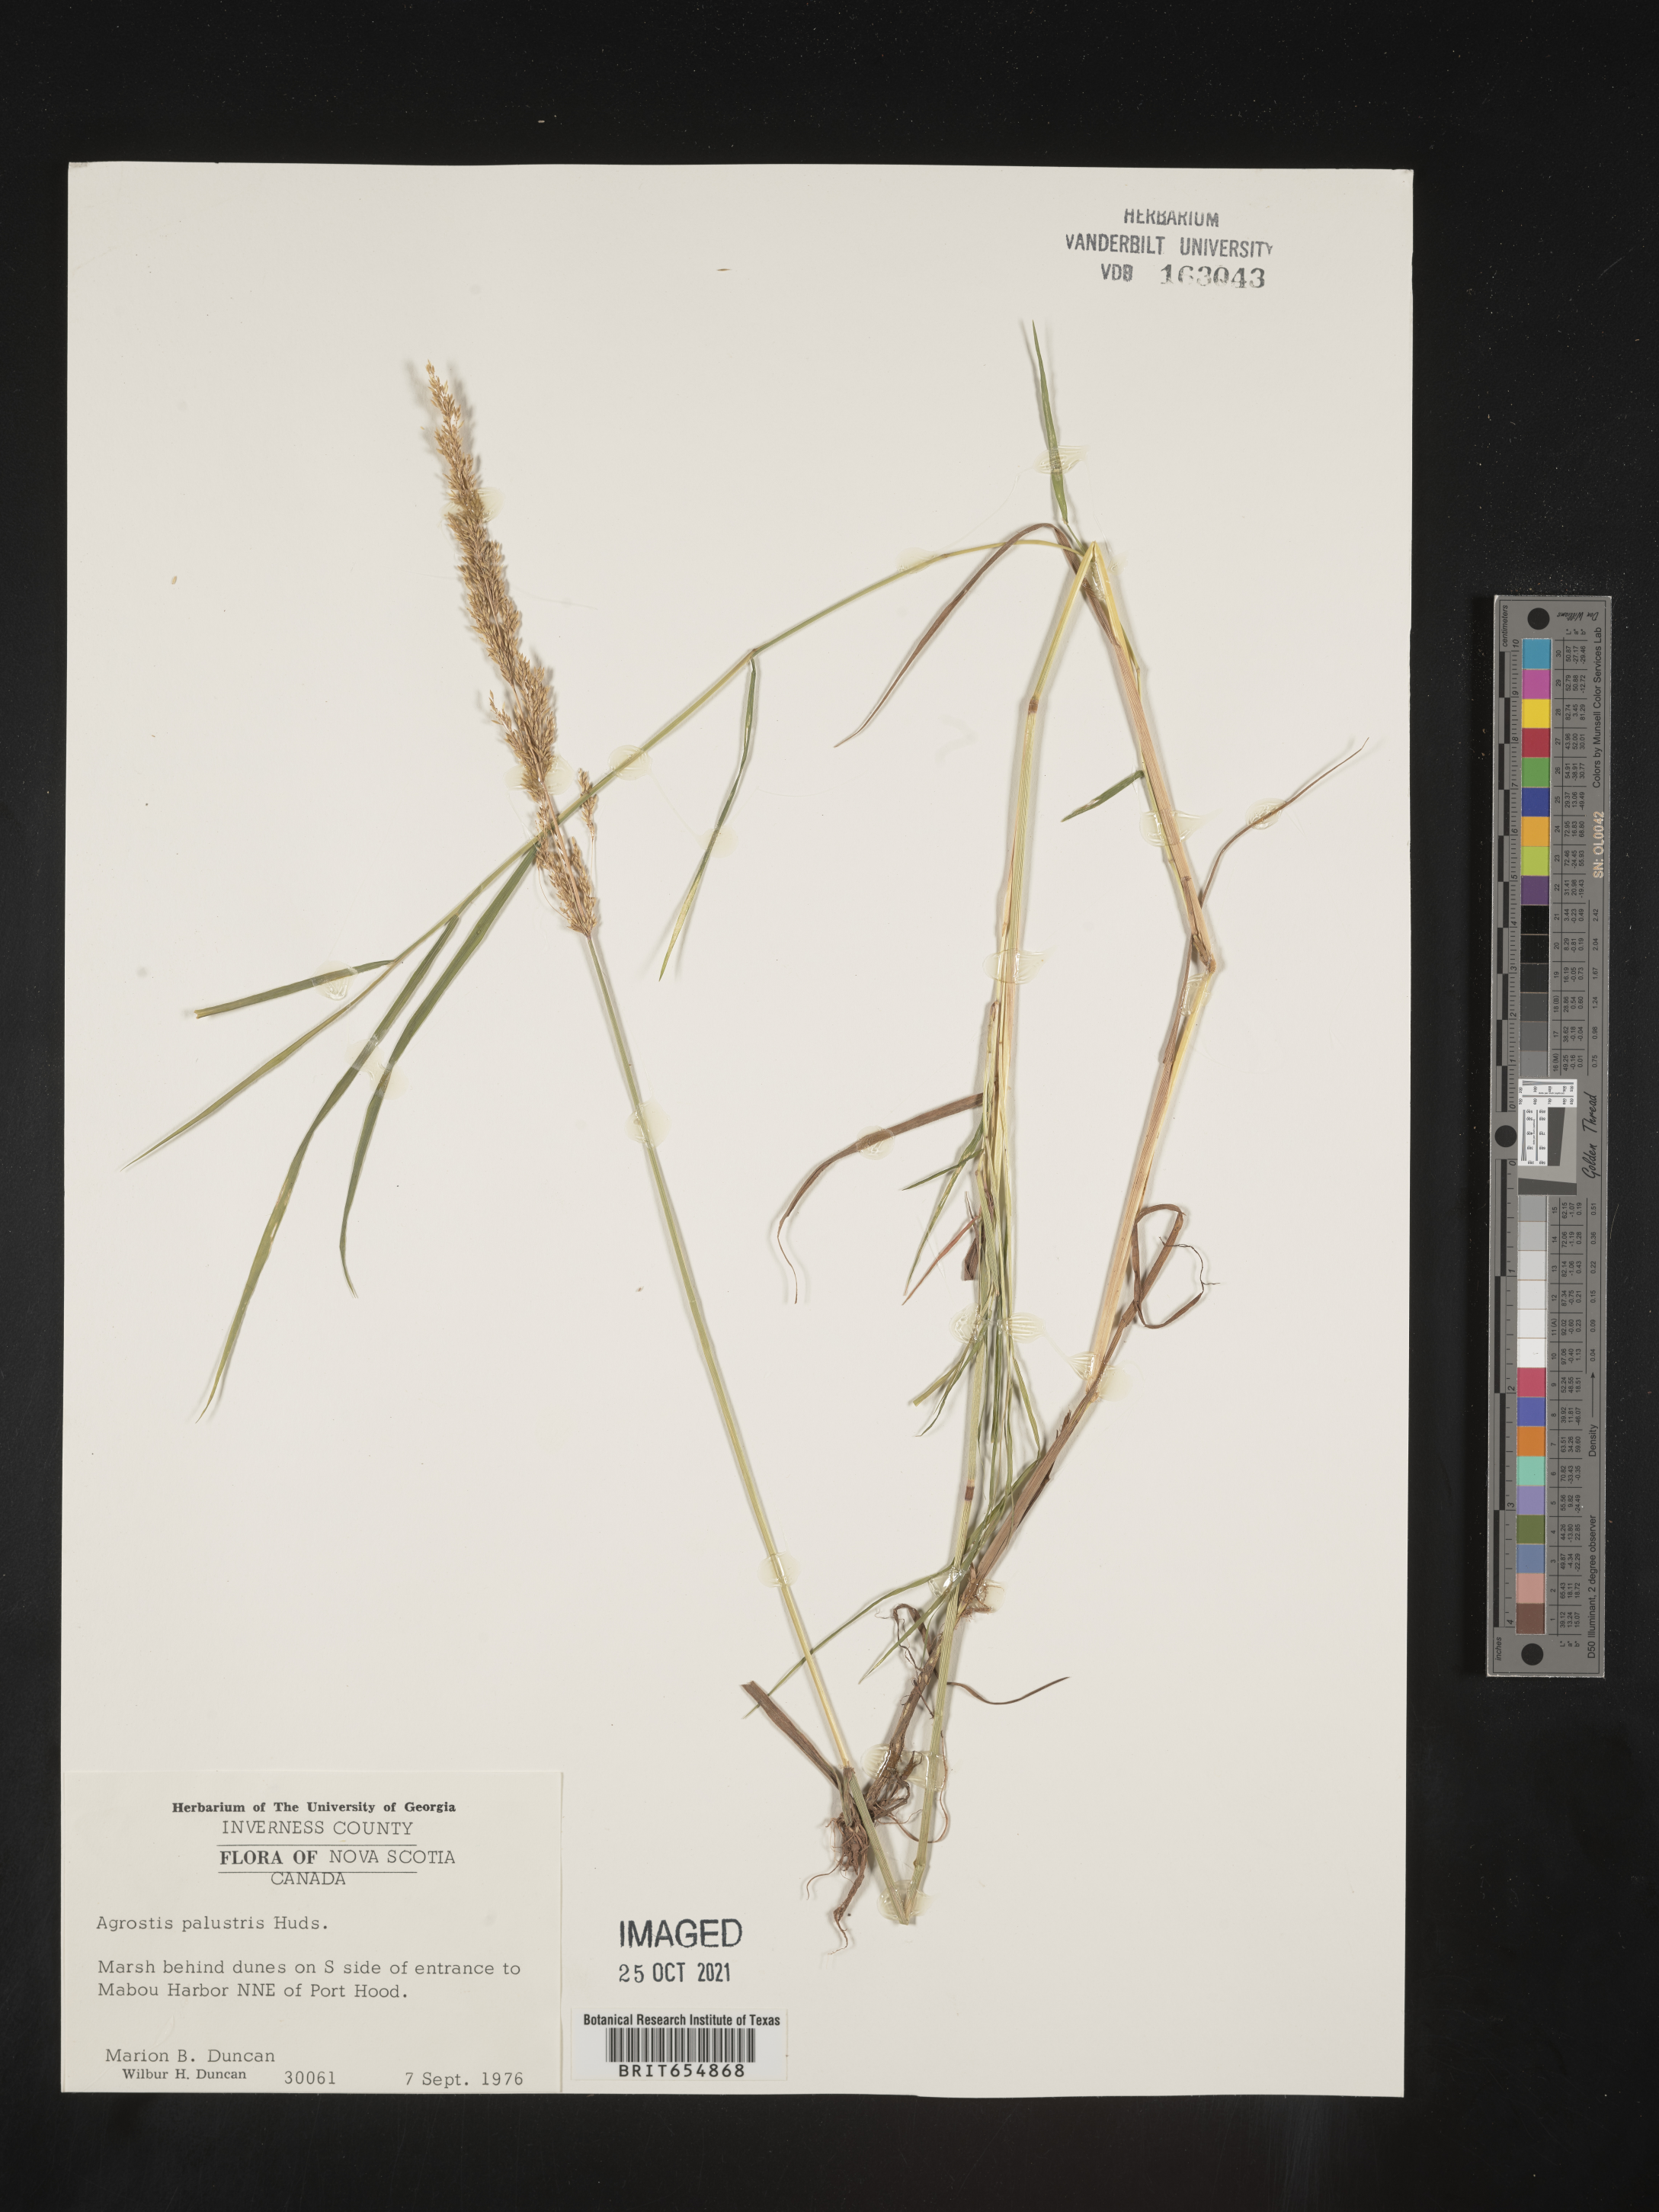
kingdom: Plantae
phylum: Tracheophyta
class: Liliopsida
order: Poales
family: Poaceae
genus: Agrostis
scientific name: Agrostis
